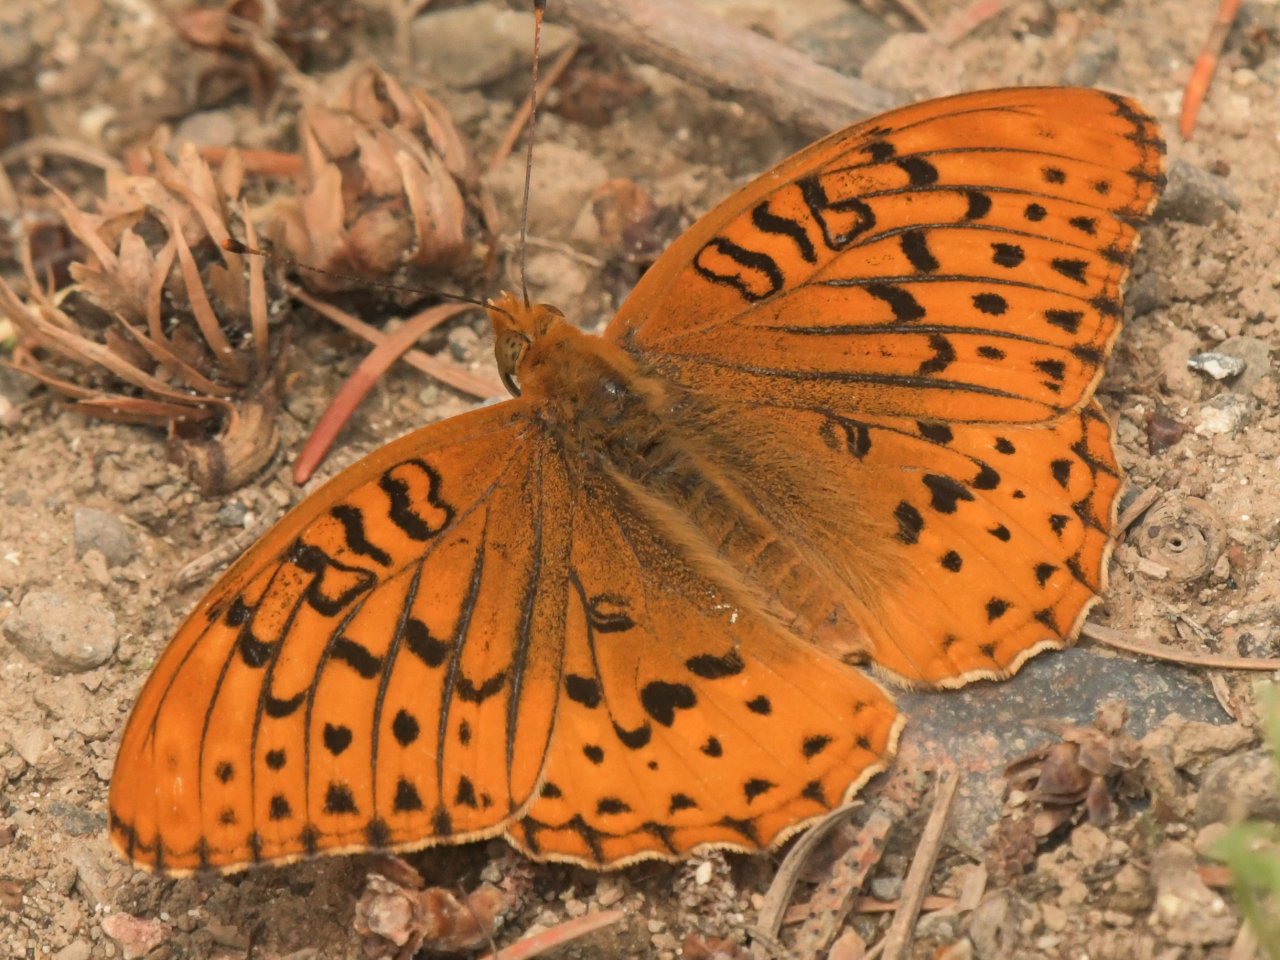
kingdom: Animalia
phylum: Arthropoda
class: Insecta
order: Lepidoptera
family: Nymphalidae
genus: Speyeria
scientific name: Speyeria cybele
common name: Great Spangled Fritillary
